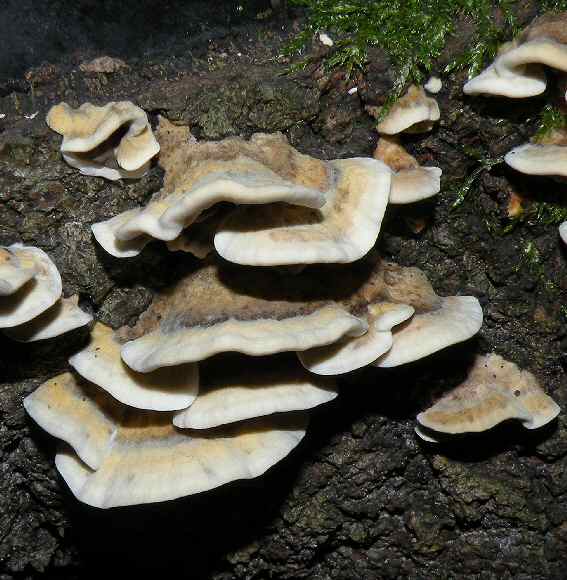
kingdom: Fungi
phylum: Basidiomycota
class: Agaricomycetes
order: Polyporales
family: Phanerochaetaceae
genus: Bjerkandera
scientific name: Bjerkandera adusta
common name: sveden sodporesvamp
